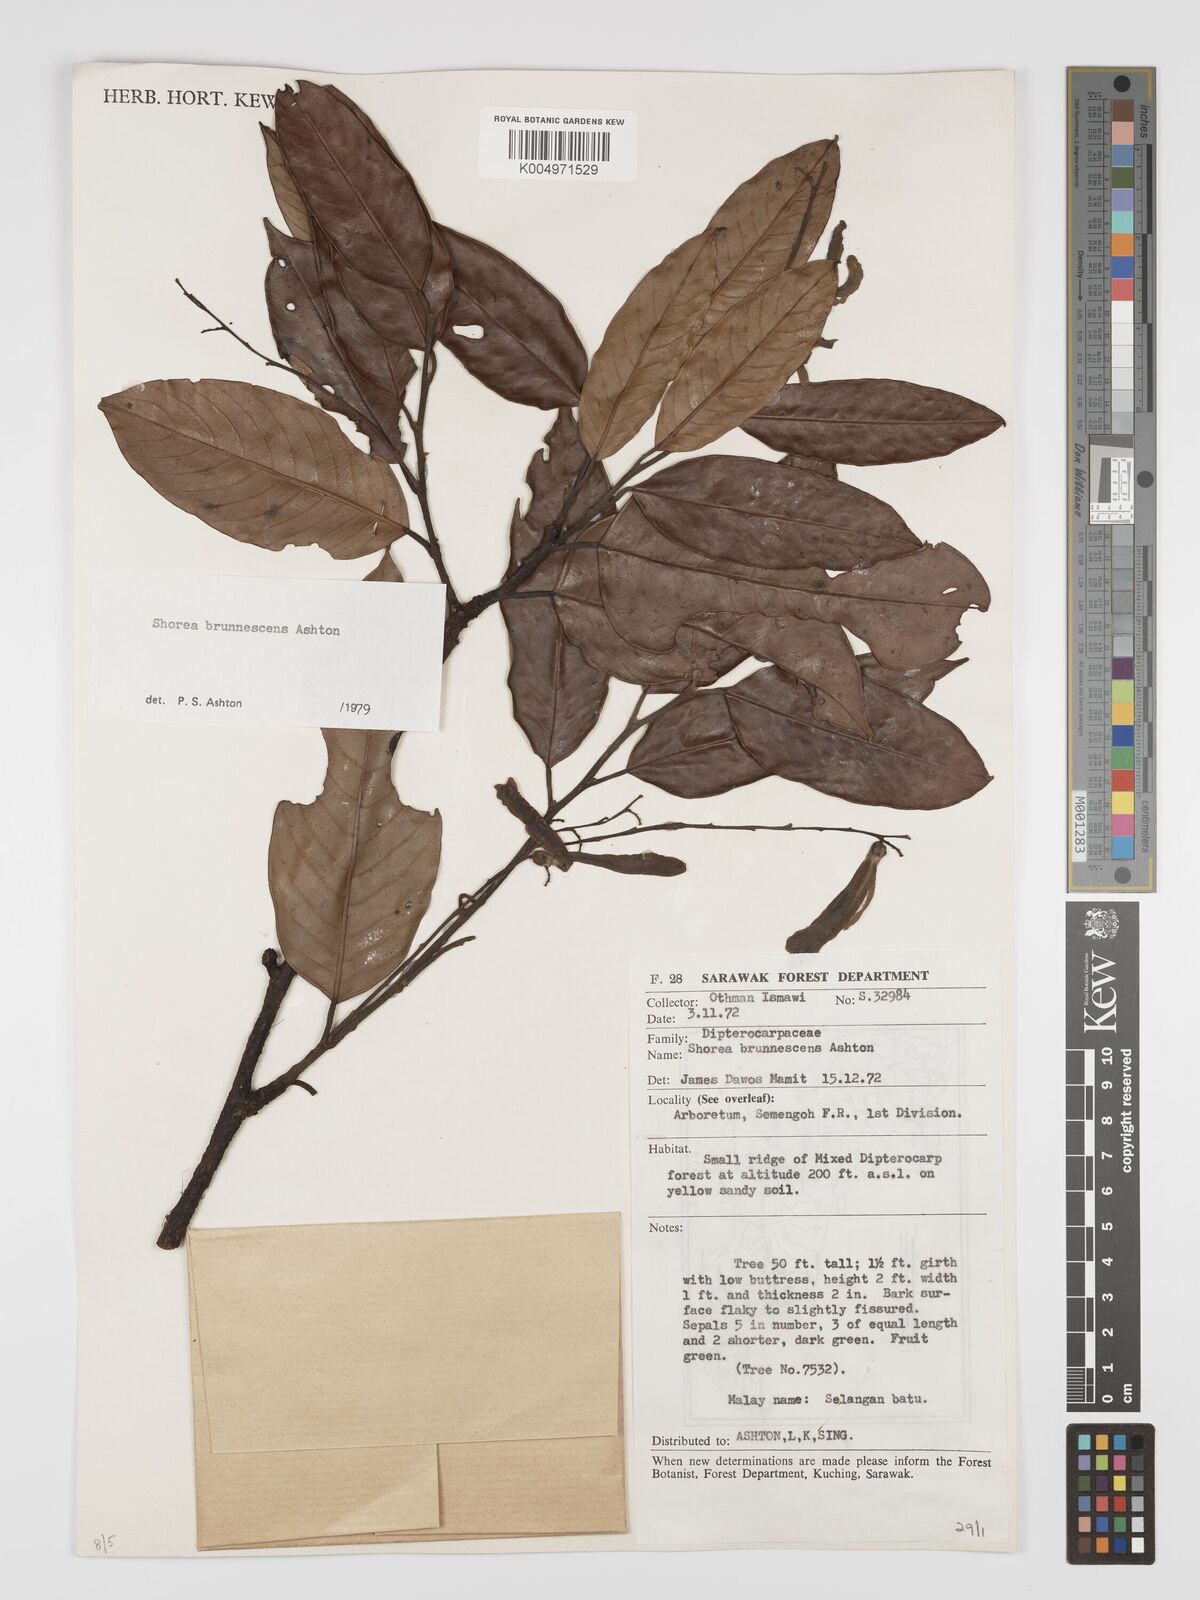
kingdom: Plantae
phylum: Tracheophyta
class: Magnoliopsida
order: Malvales
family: Dipterocarpaceae
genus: Shorea
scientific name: Shorea brunnescens
